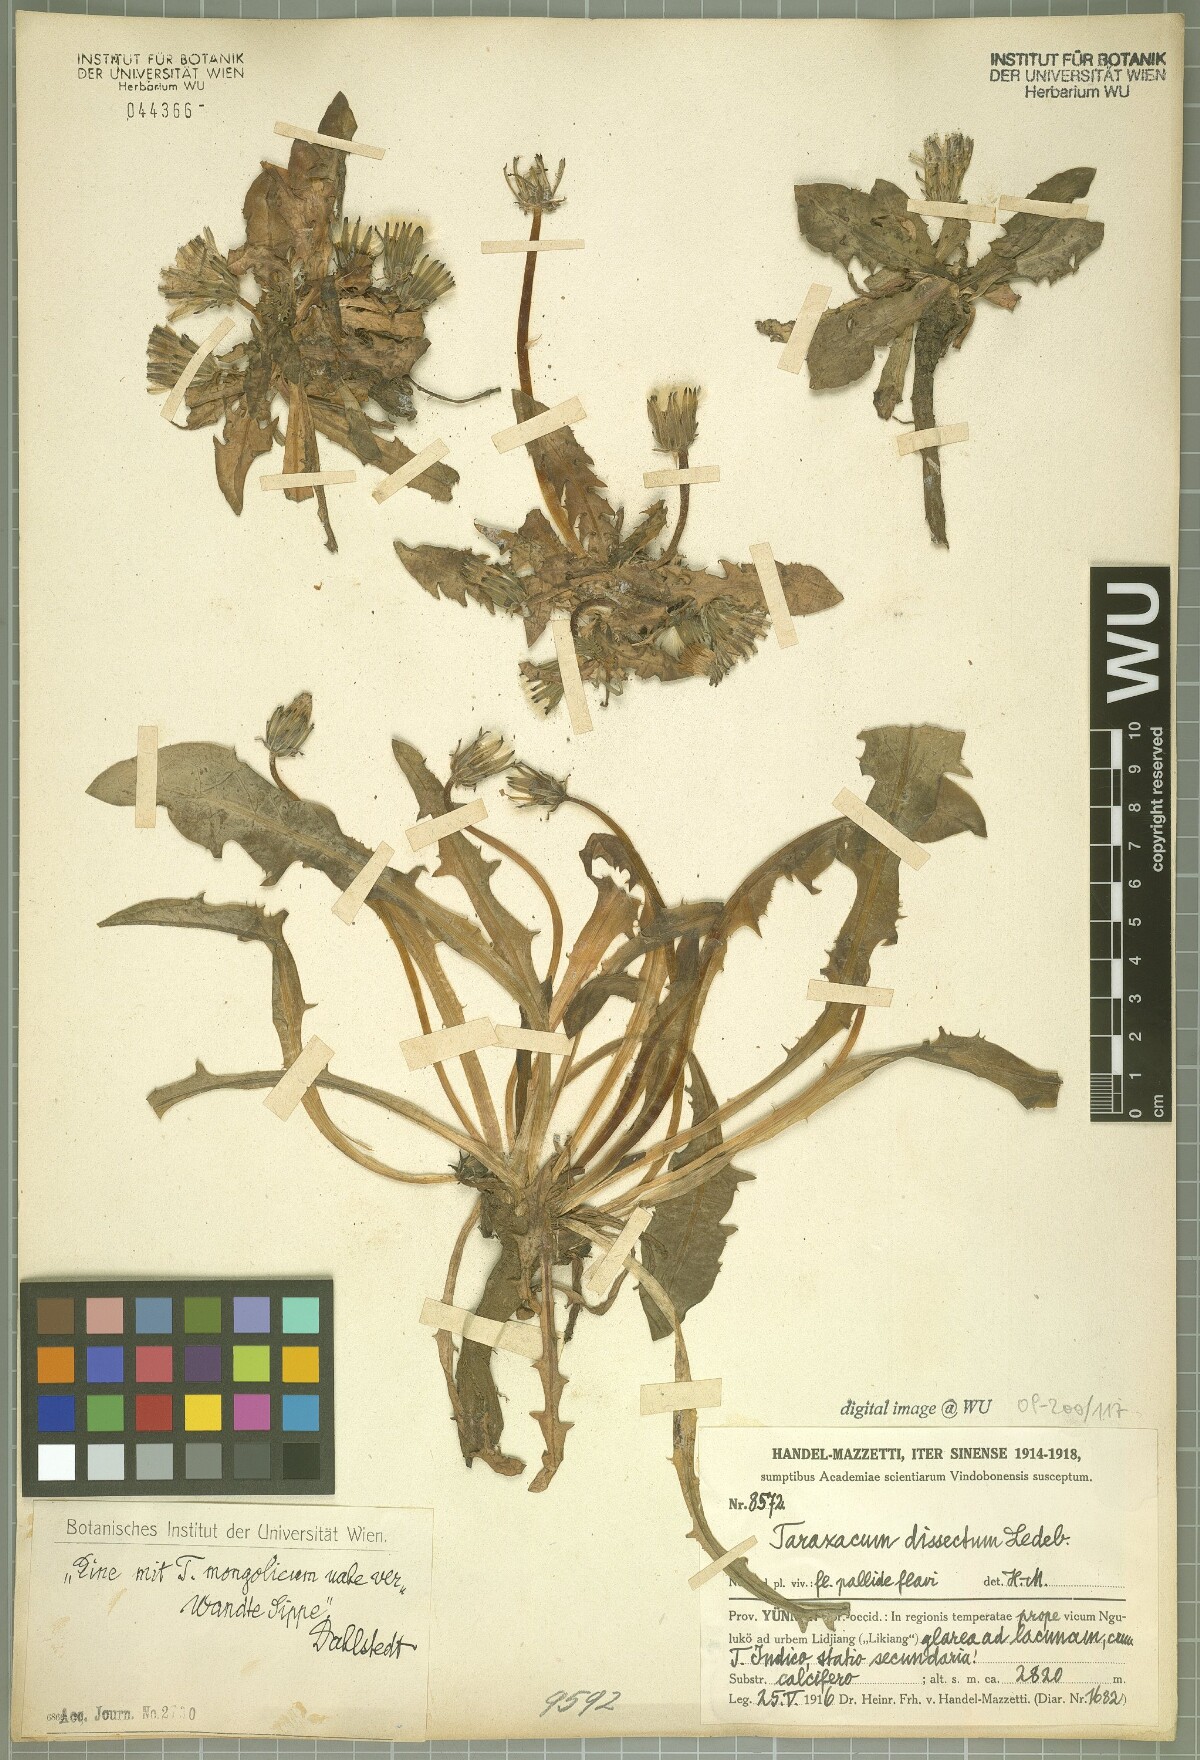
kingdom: Plantae
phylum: Tracheophyta
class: Magnoliopsida
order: Asterales
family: Asteraceae
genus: Taraxacum
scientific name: Taraxacum dissectum
